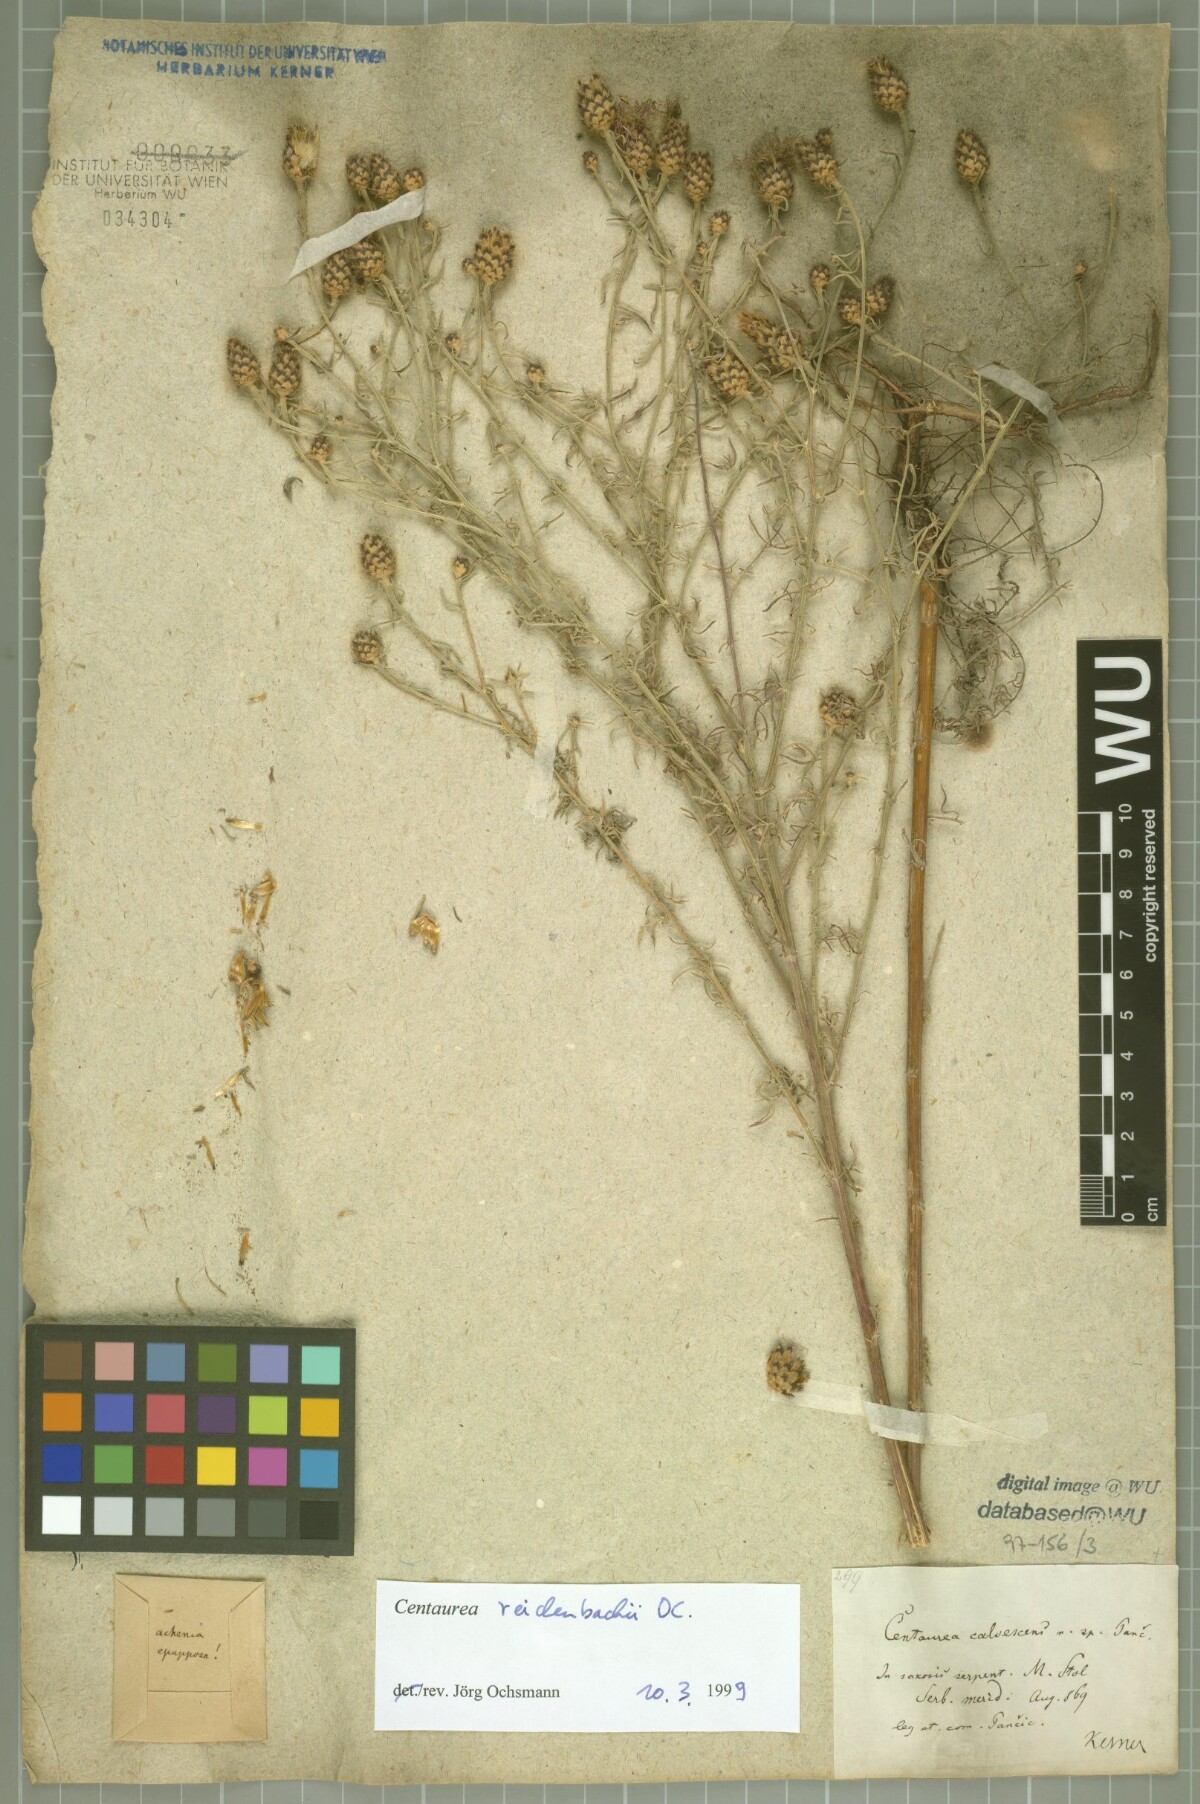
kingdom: Plantae
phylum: Tracheophyta
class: Magnoliopsida
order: Asterales
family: Asteraceae
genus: Centaurea
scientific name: Centaurea reichenbachii
